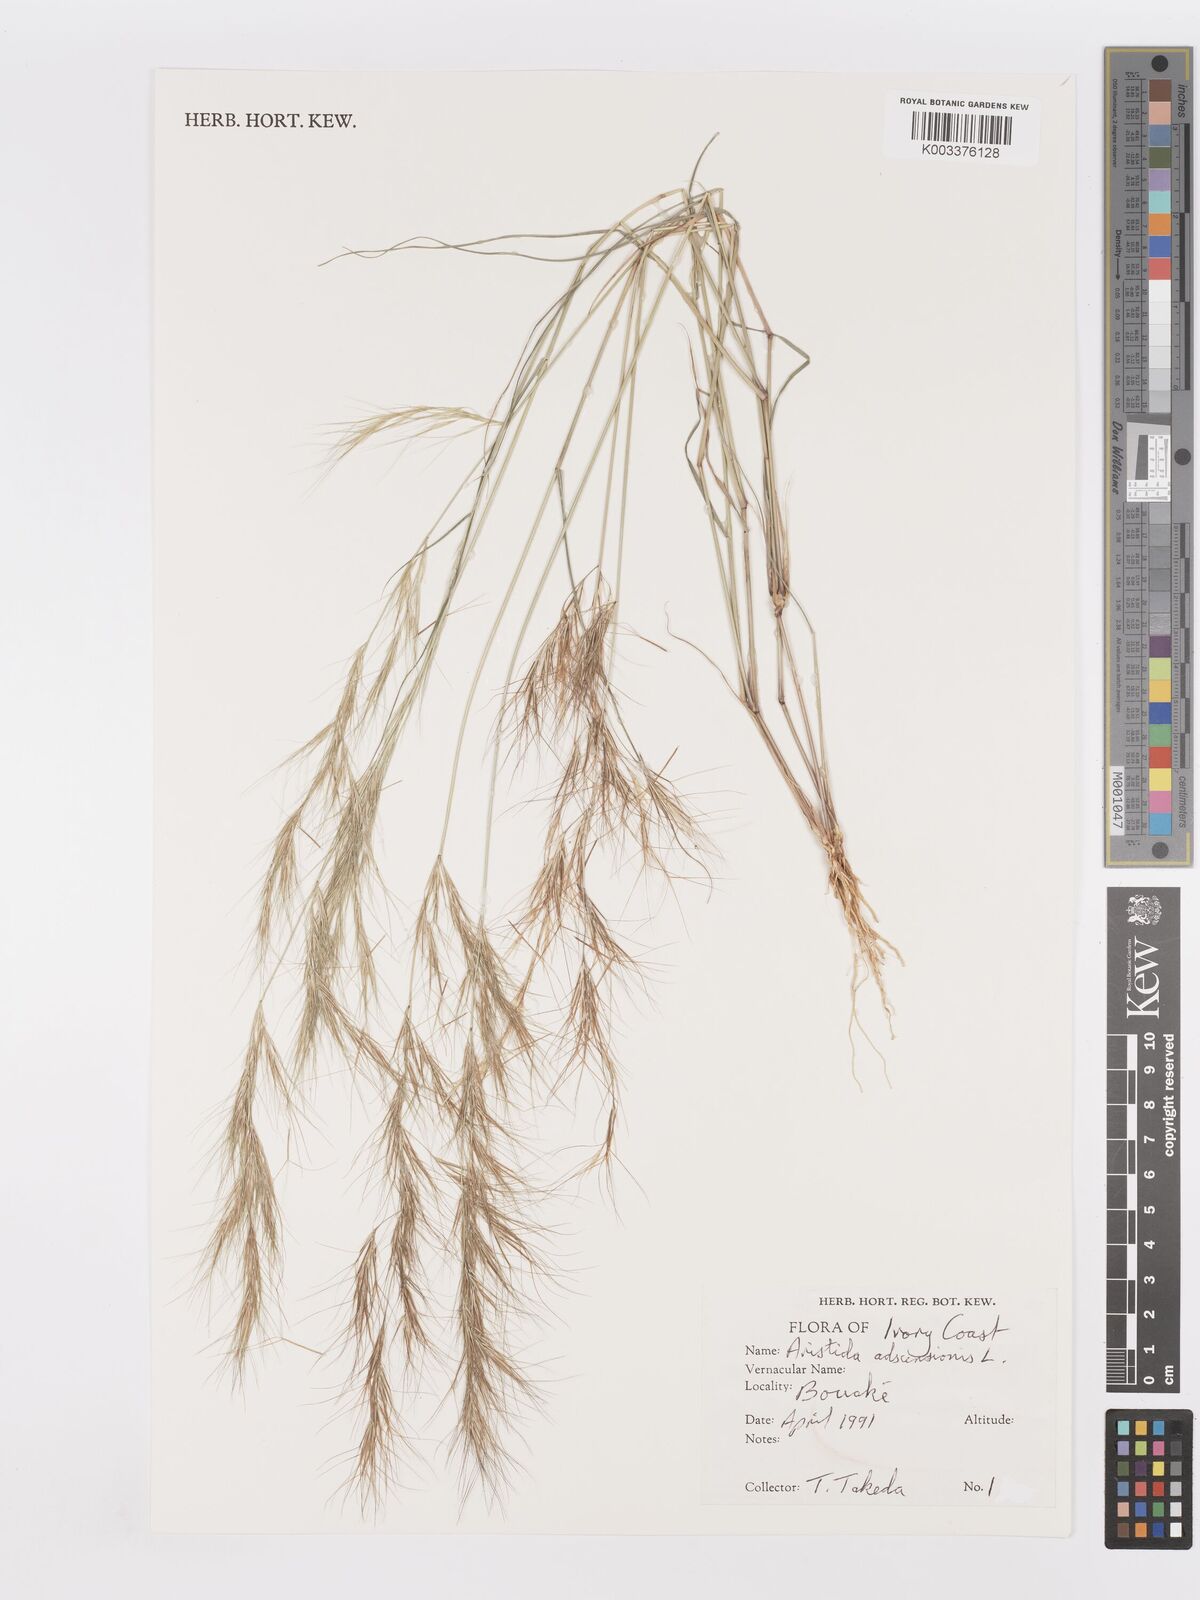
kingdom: Plantae
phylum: Tracheophyta
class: Liliopsida
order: Poales
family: Poaceae
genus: Aristida
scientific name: Aristida adscensionis
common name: Sixweeks threeawn
